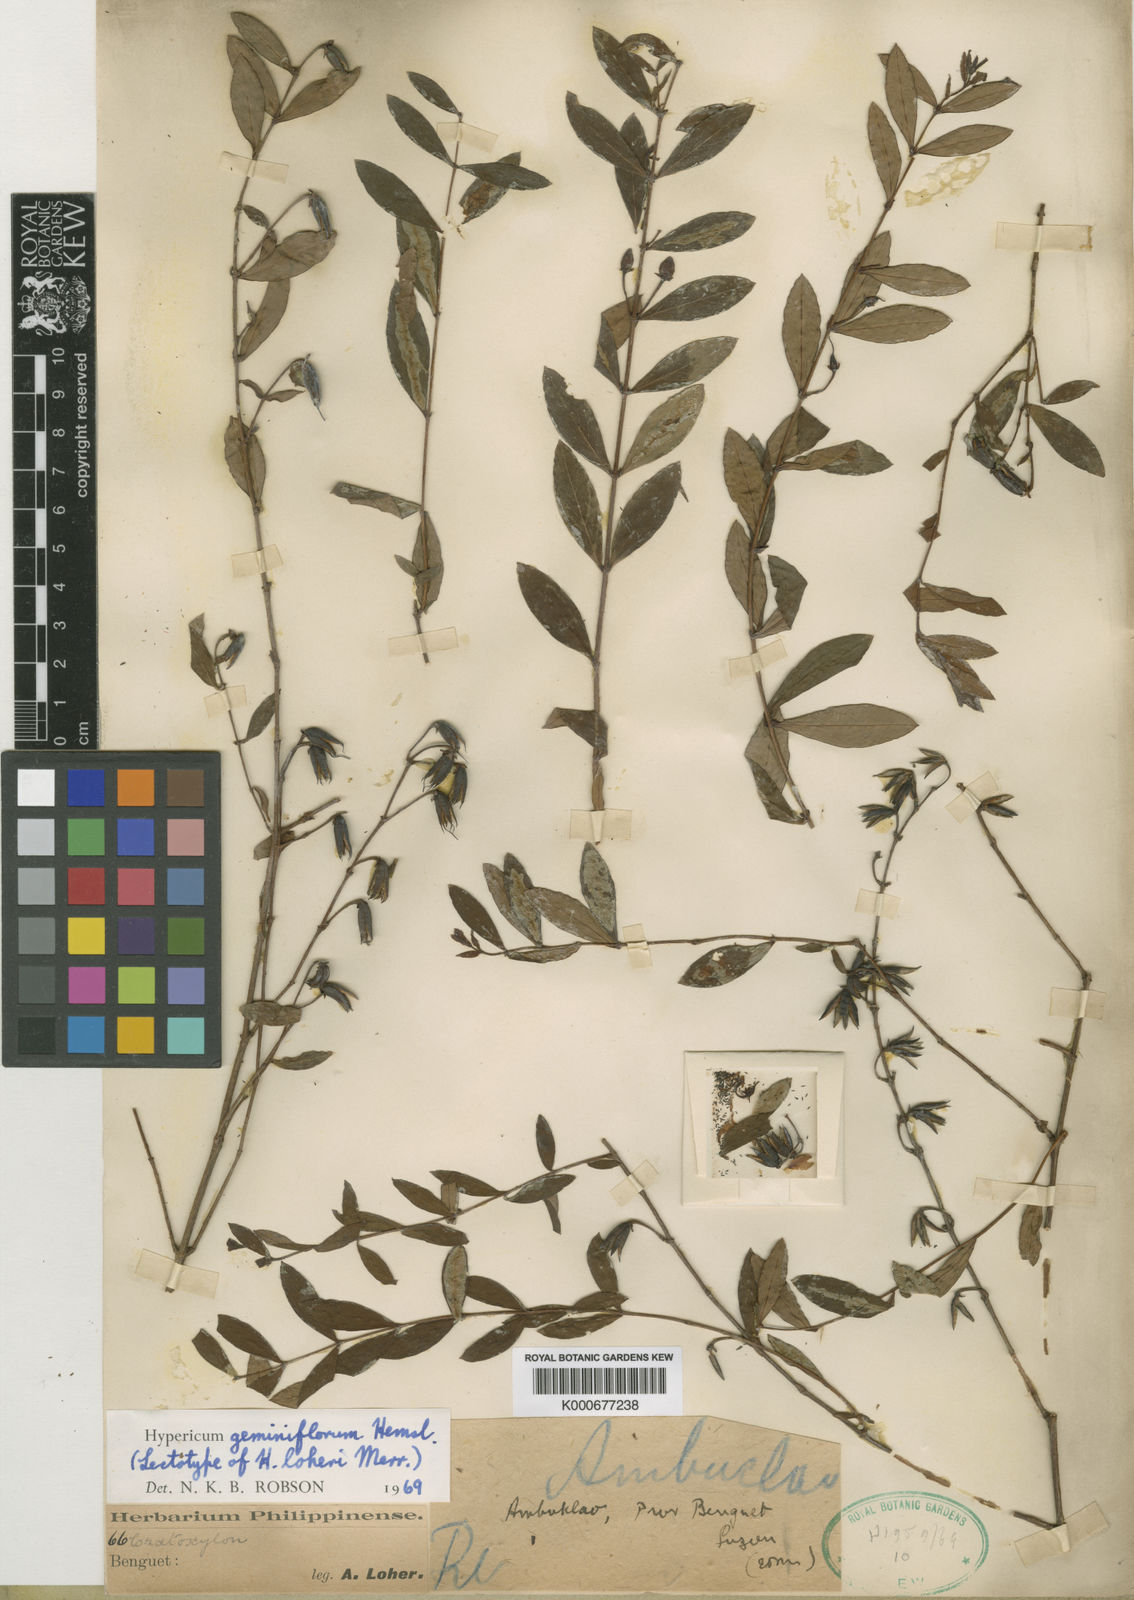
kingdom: Plantae
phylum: Tracheophyta
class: Magnoliopsida
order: Malpighiales
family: Hypericaceae
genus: Hypericum
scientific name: Hypericum geminiflorum
